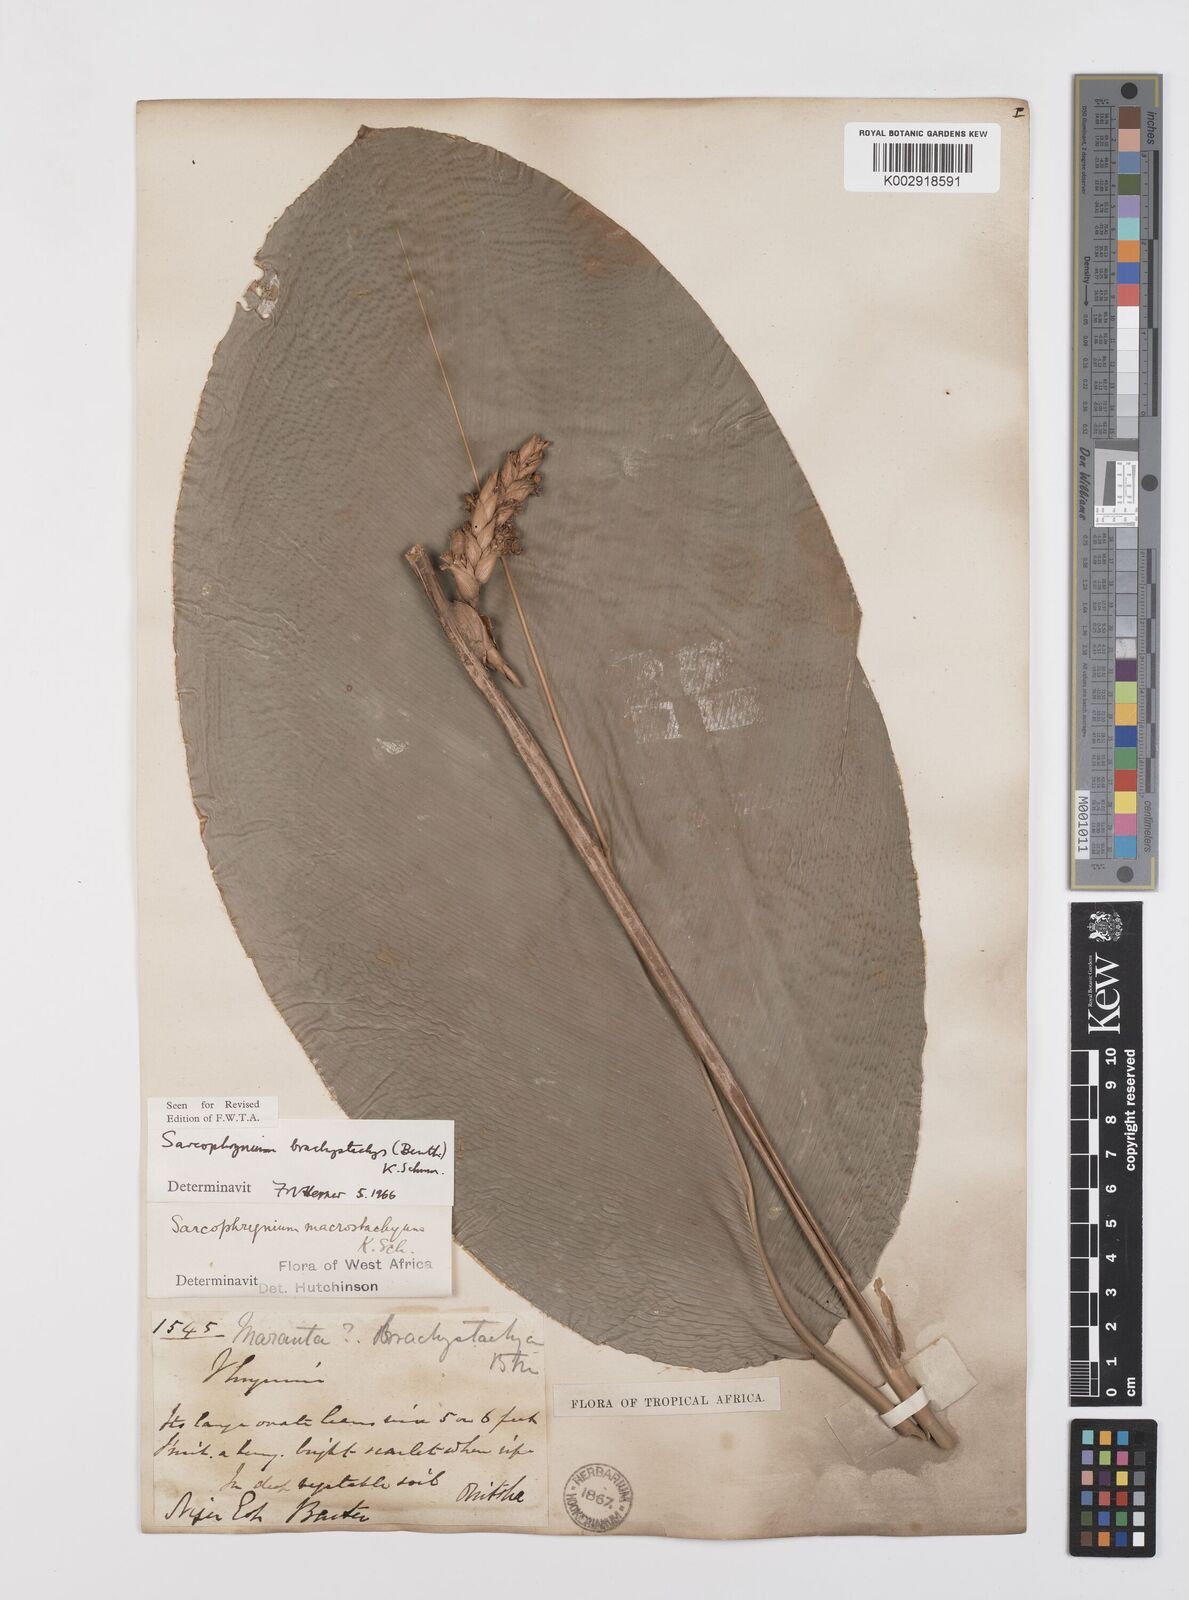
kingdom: Plantae
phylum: Tracheophyta
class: Liliopsida
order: Zingiberales
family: Marantaceae
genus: Sarcophrynium
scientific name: Sarcophrynium brachystachyum
